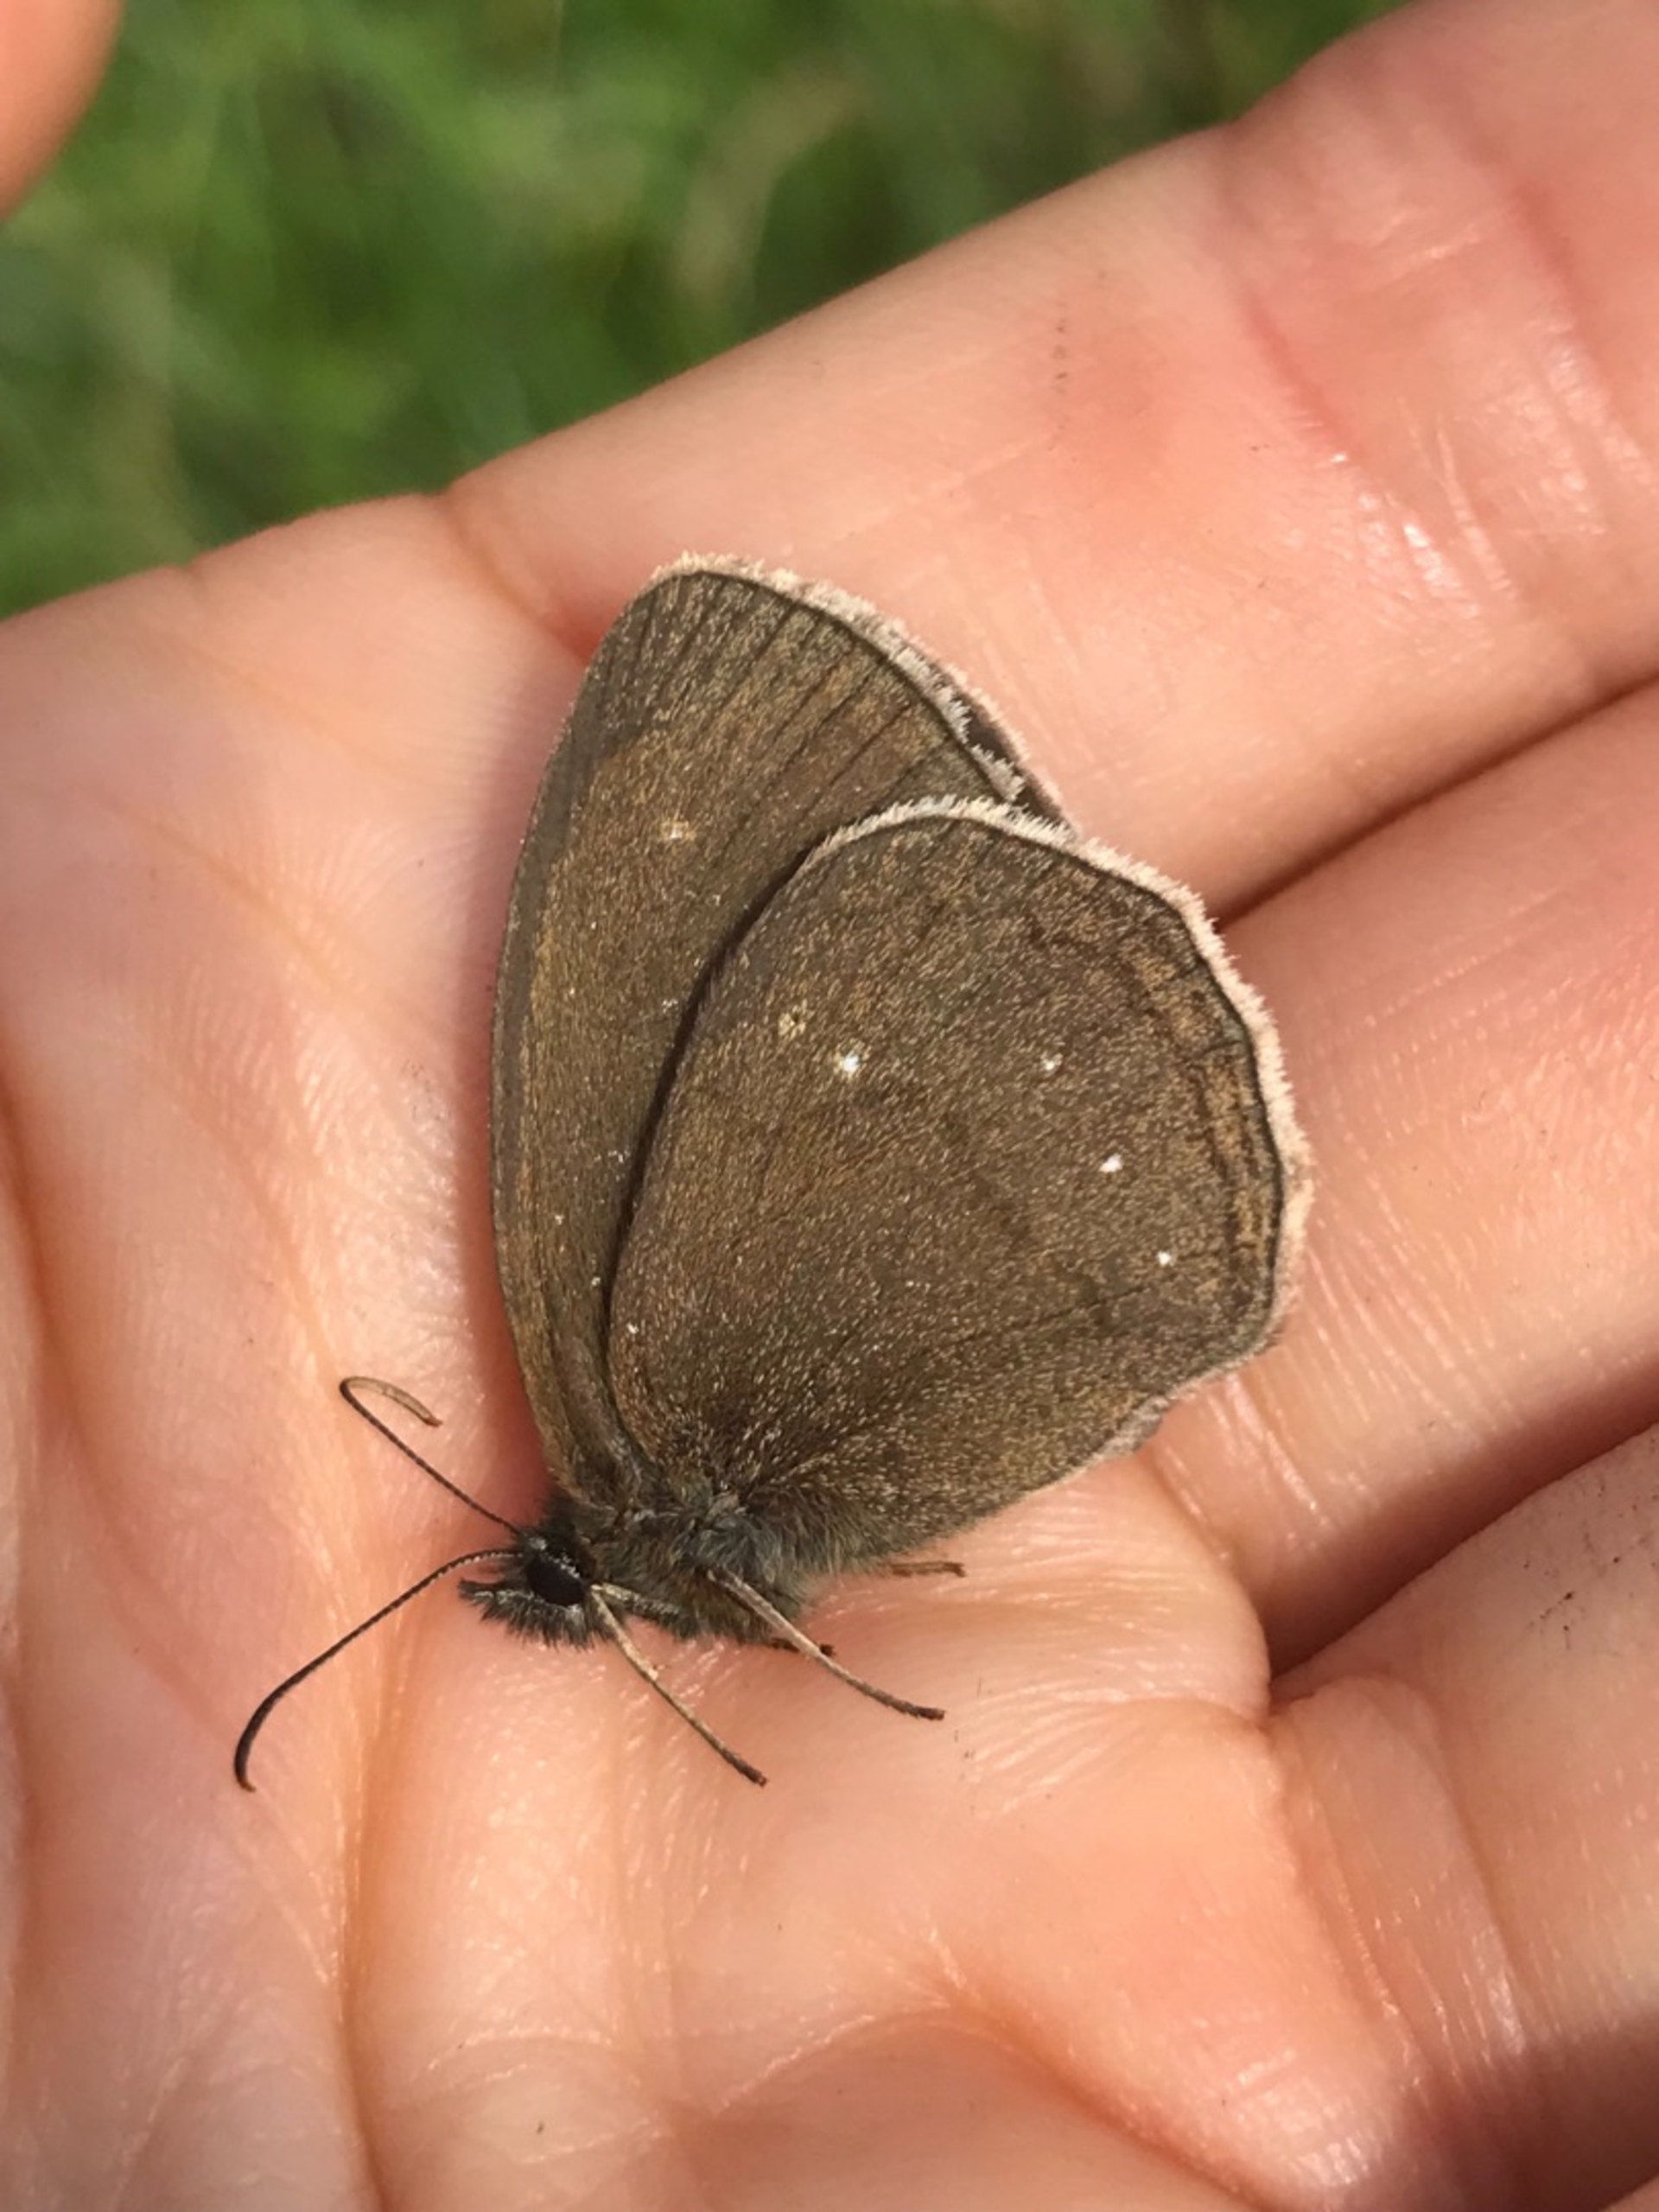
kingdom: Animalia
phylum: Arthropoda
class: Insecta
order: Lepidoptera
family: Nymphalidae
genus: Aphantopus
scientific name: Aphantopus hyperantus
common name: Engrandøje
